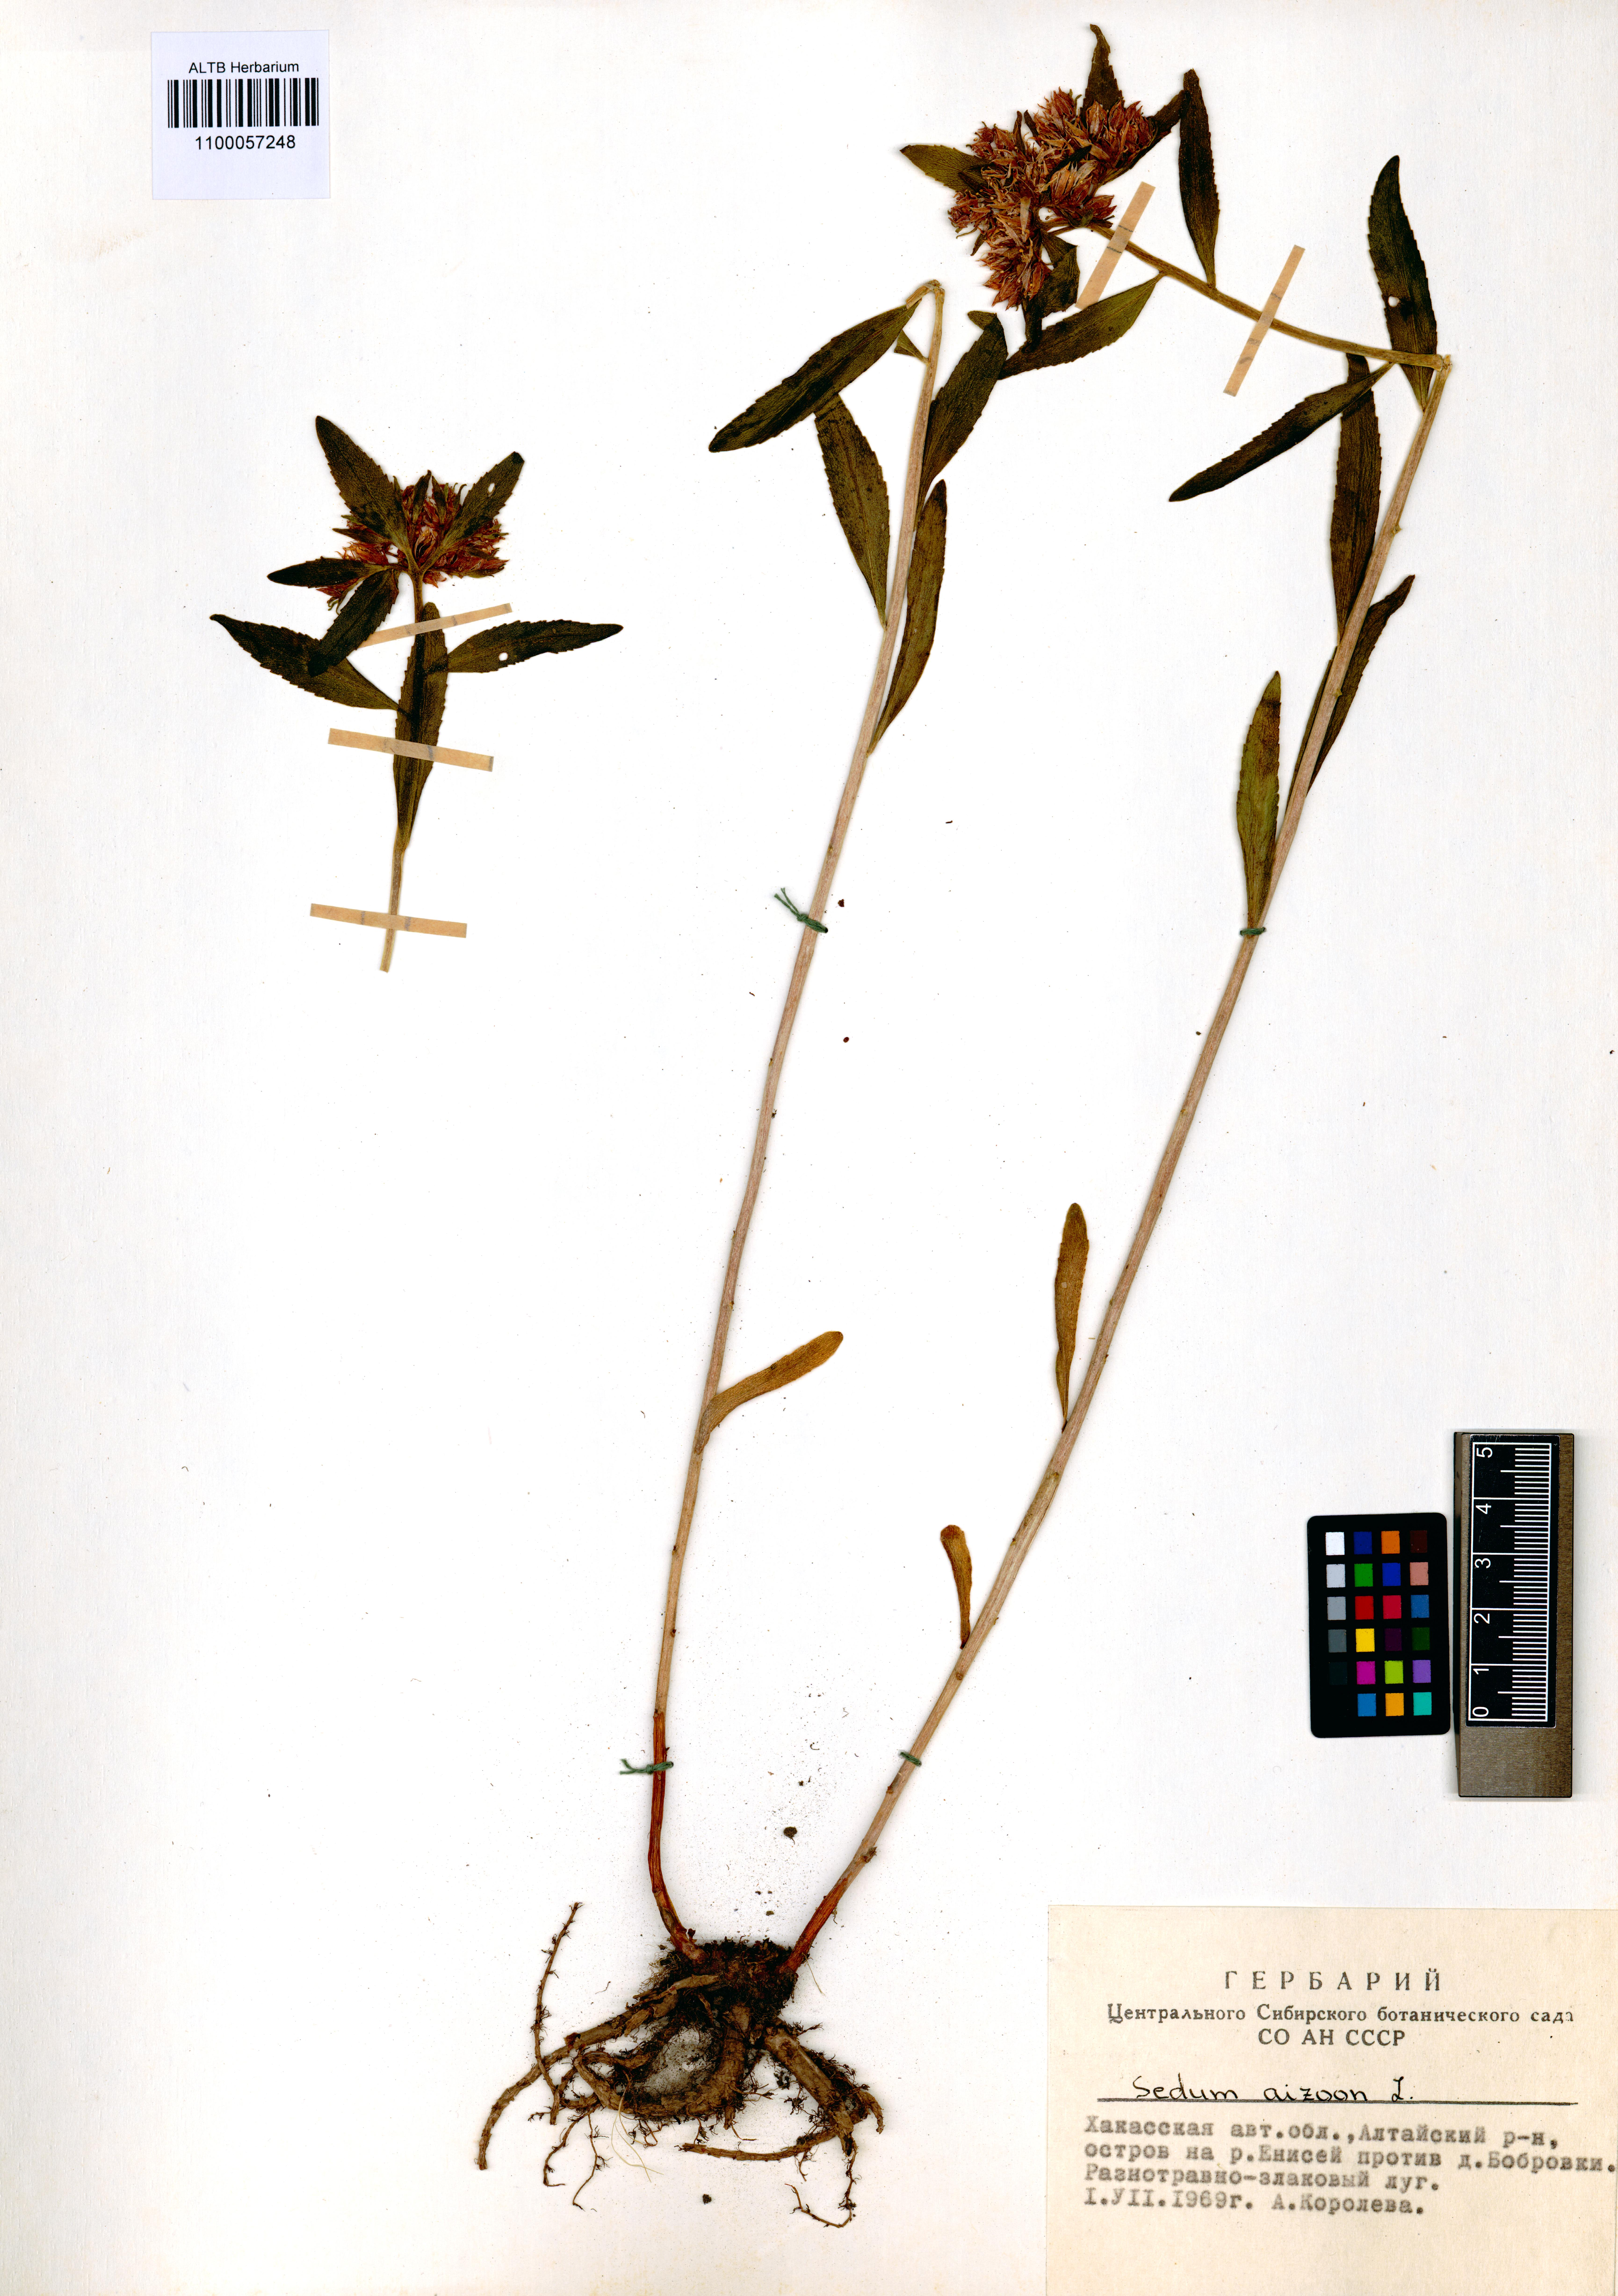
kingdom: Plantae
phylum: Tracheophyta
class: Magnoliopsida
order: Saxifragales
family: Crassulaceae
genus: Phedimus
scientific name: Phedimus aizoon
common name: Orpin aizoon
